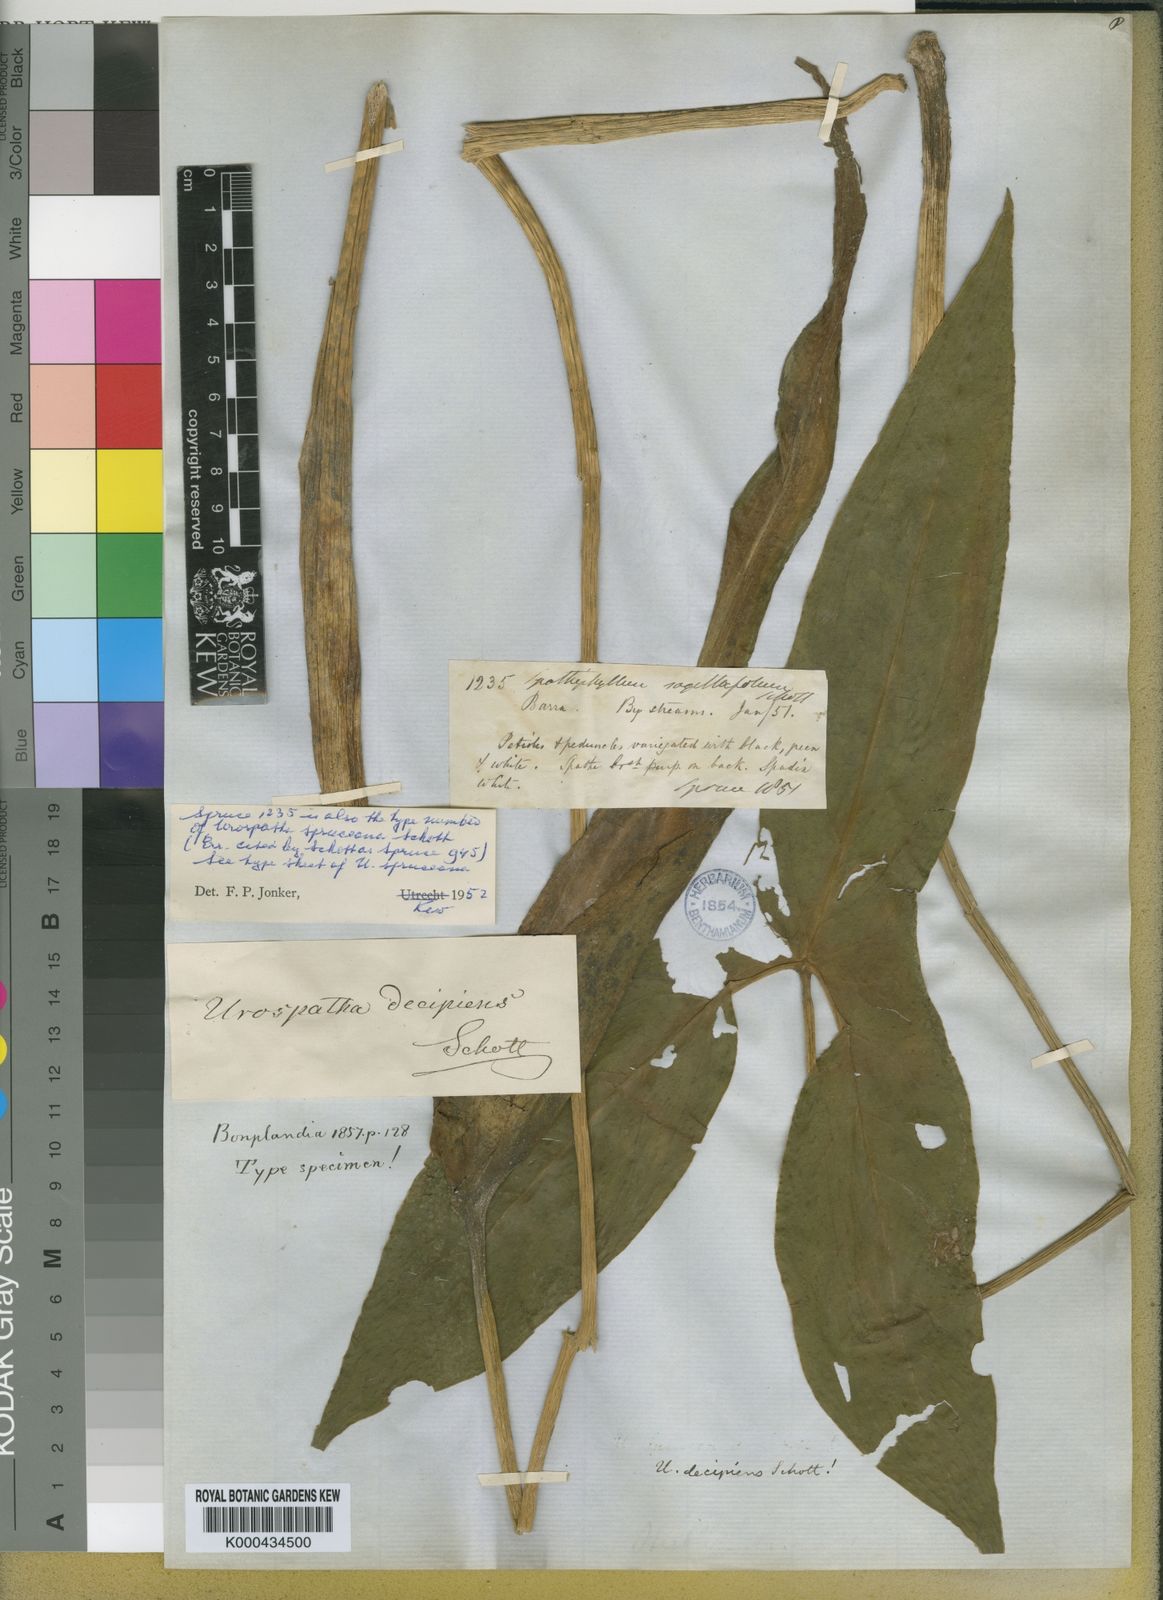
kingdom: Plantae
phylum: Tracheophyta
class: Liliopsida
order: Alismatales
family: Araceae
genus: Urospatha
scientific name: Urospatha
